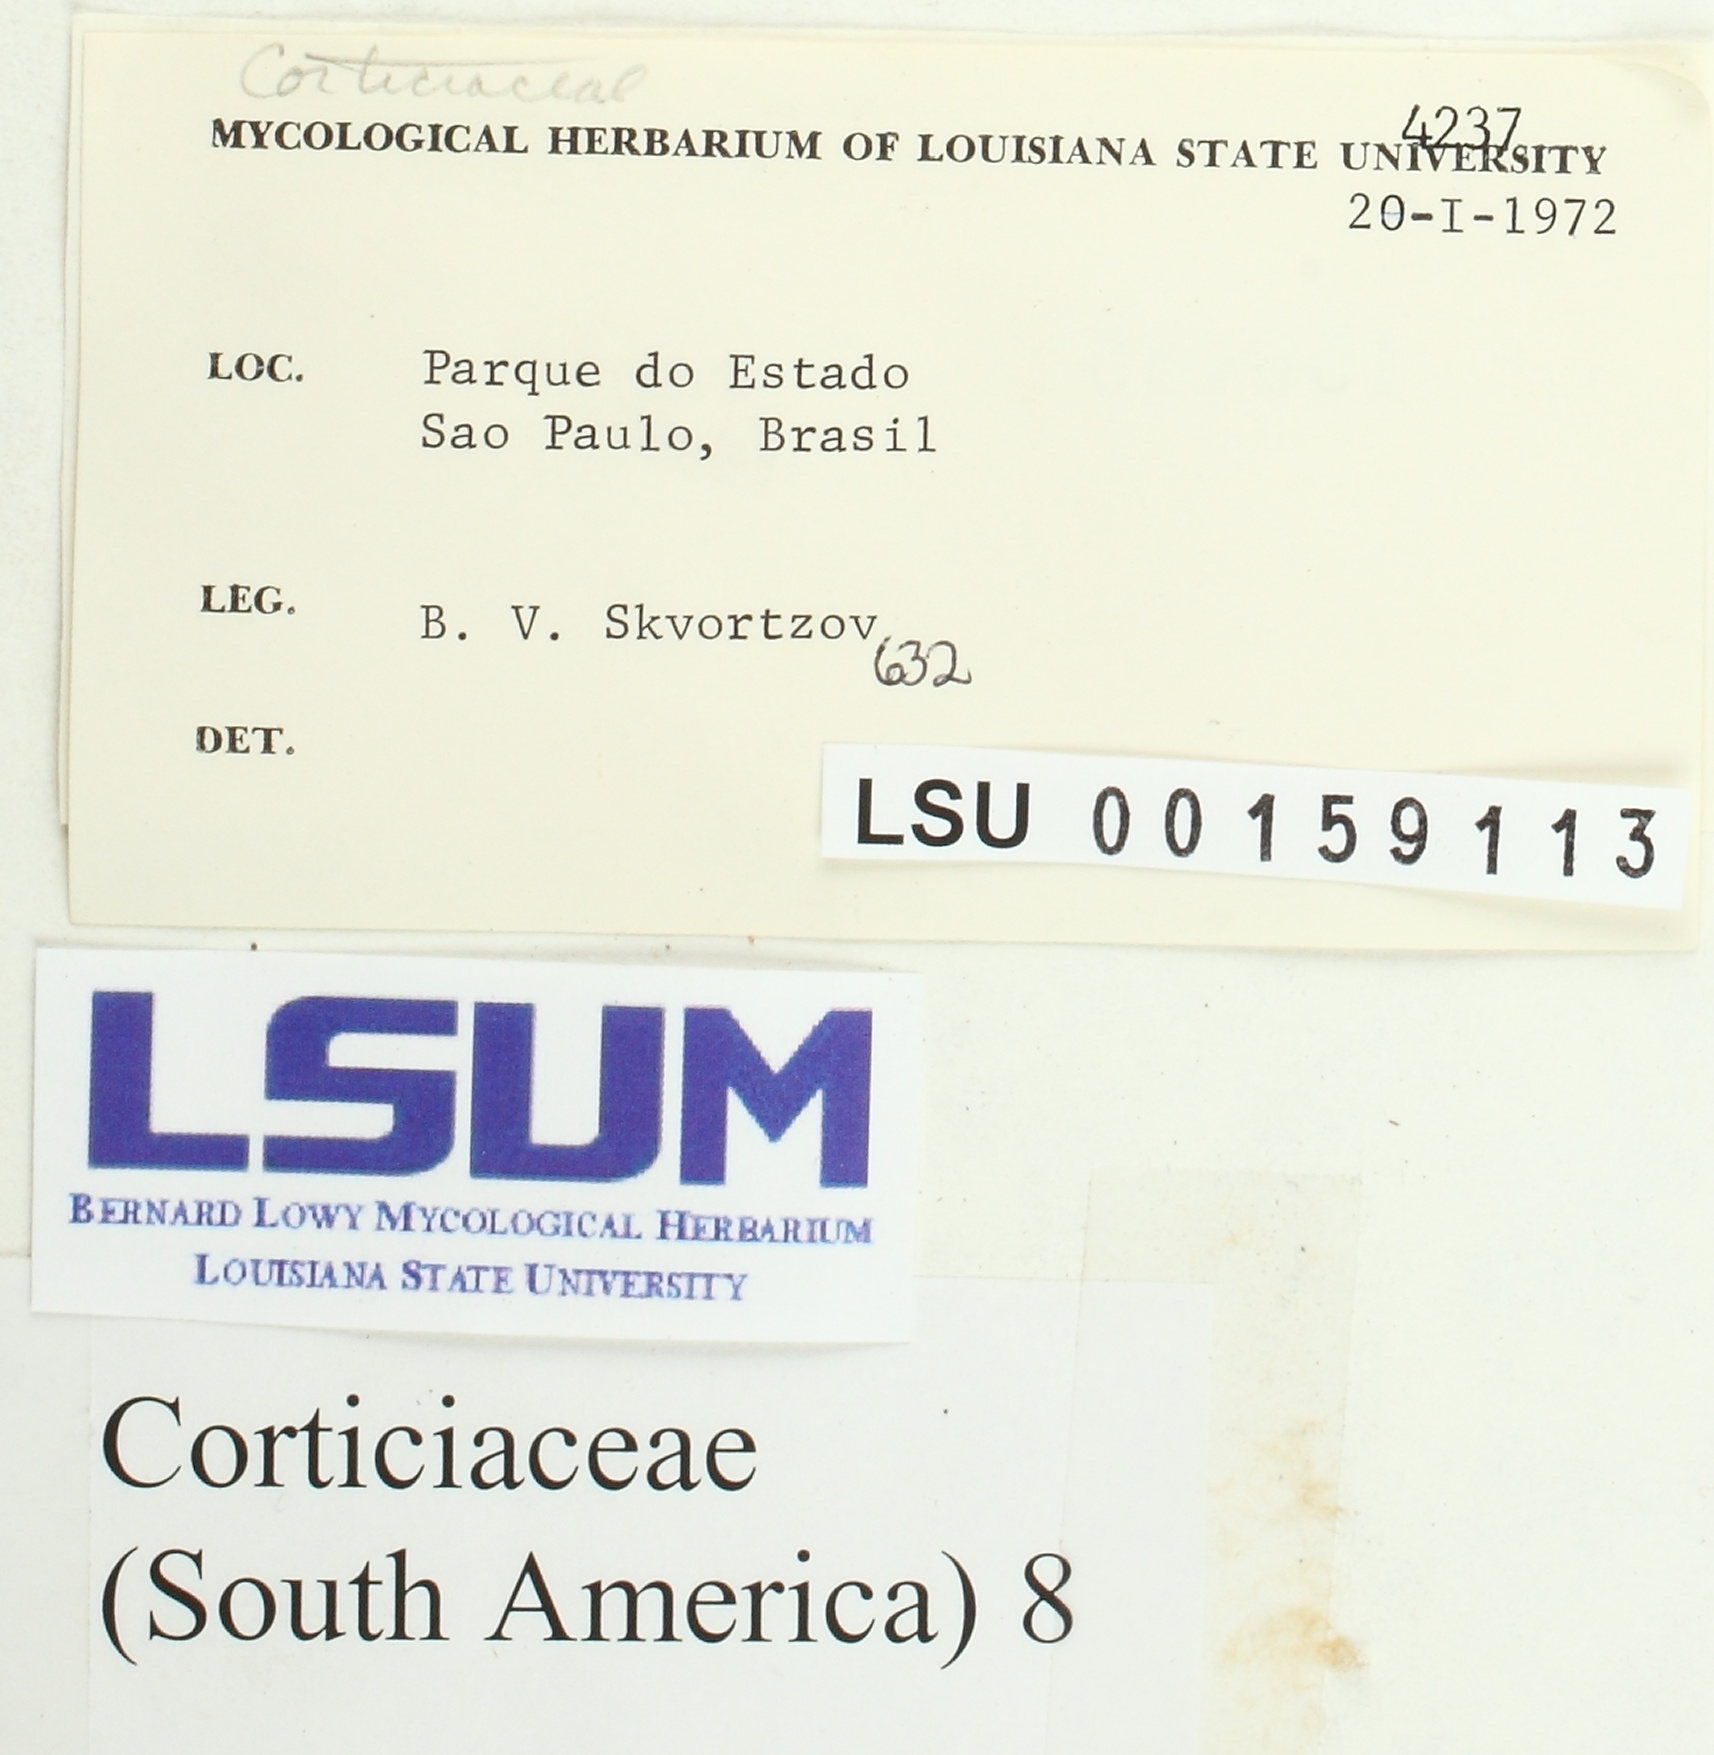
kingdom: Fungi
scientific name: Fungi
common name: Fungi
